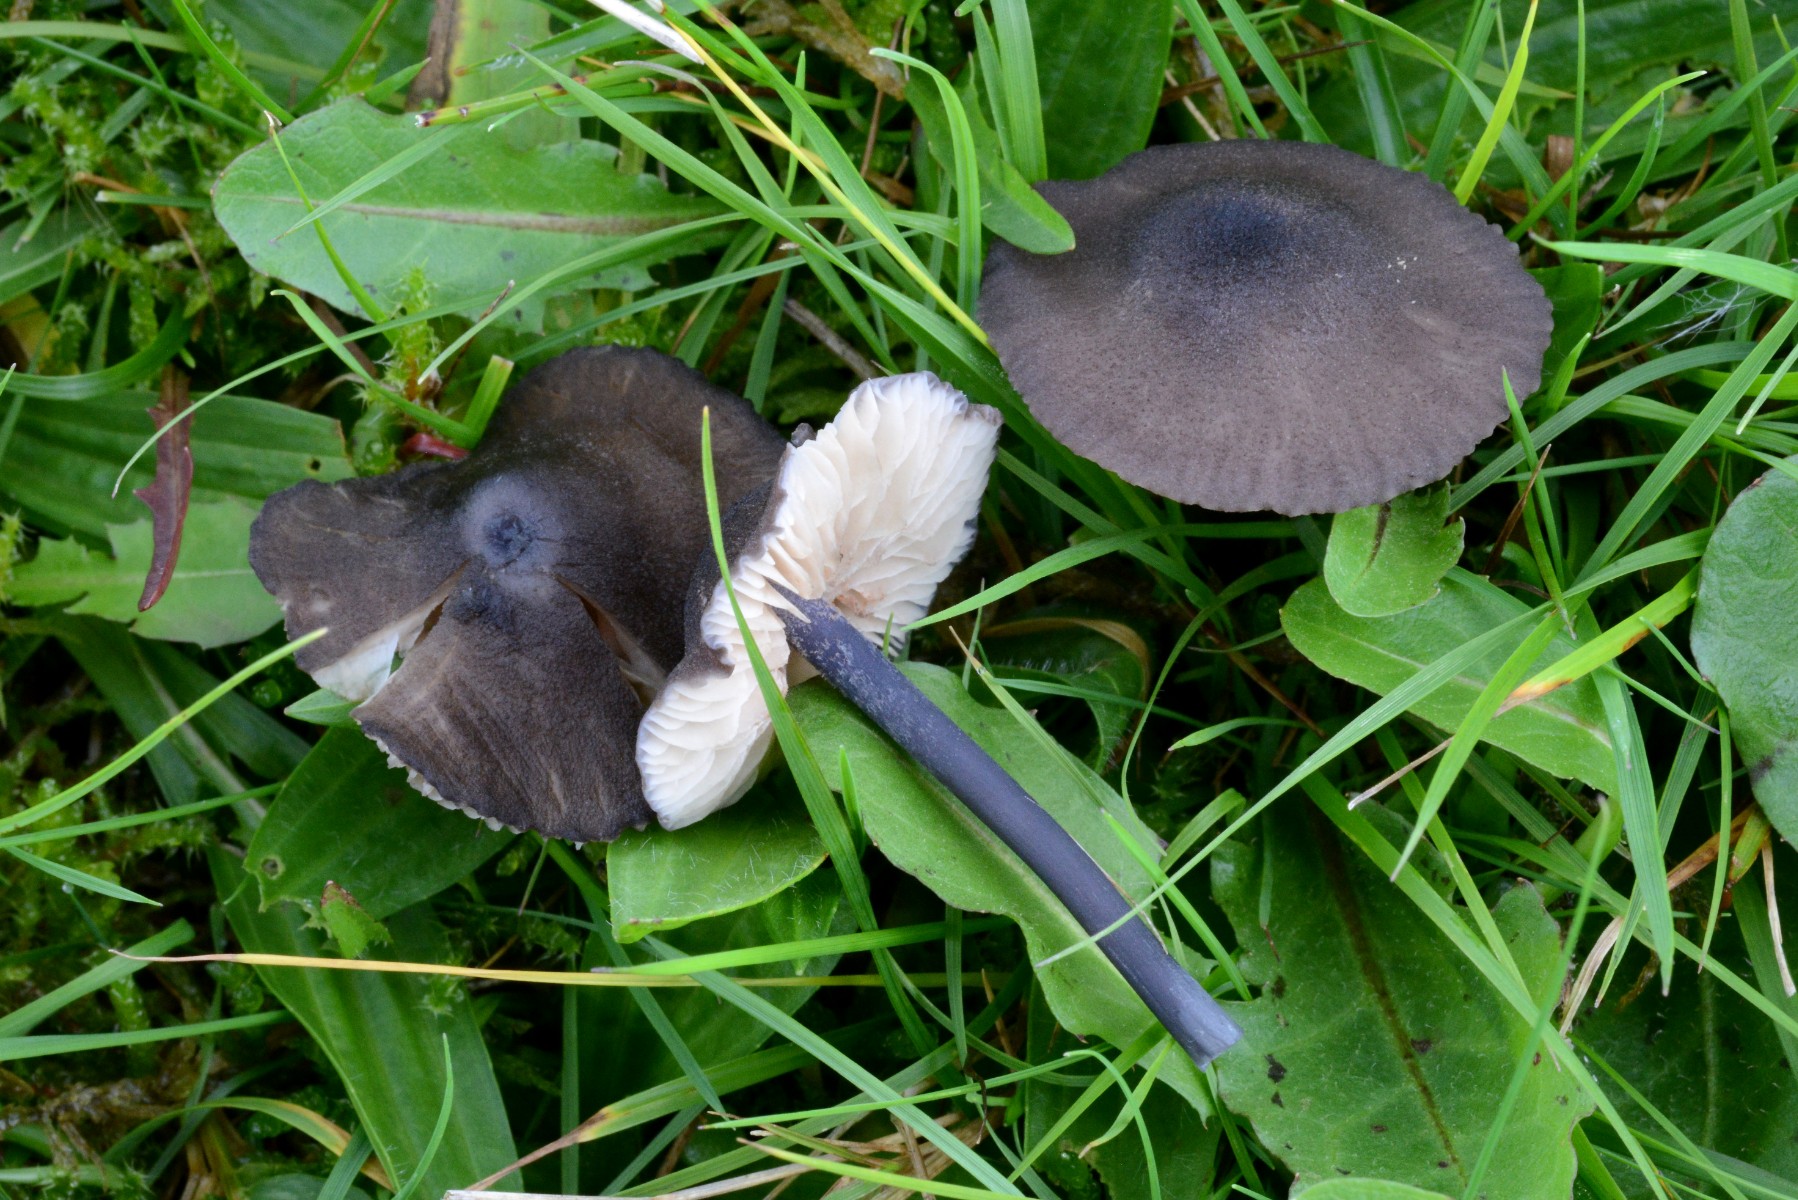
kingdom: Fungi
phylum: Basidiomycota
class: Agaricomycetes
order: Agaricales
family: Entolomataceae
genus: Entoloma
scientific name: Entoloma atrocoeruleum
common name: sortblå rødblad
